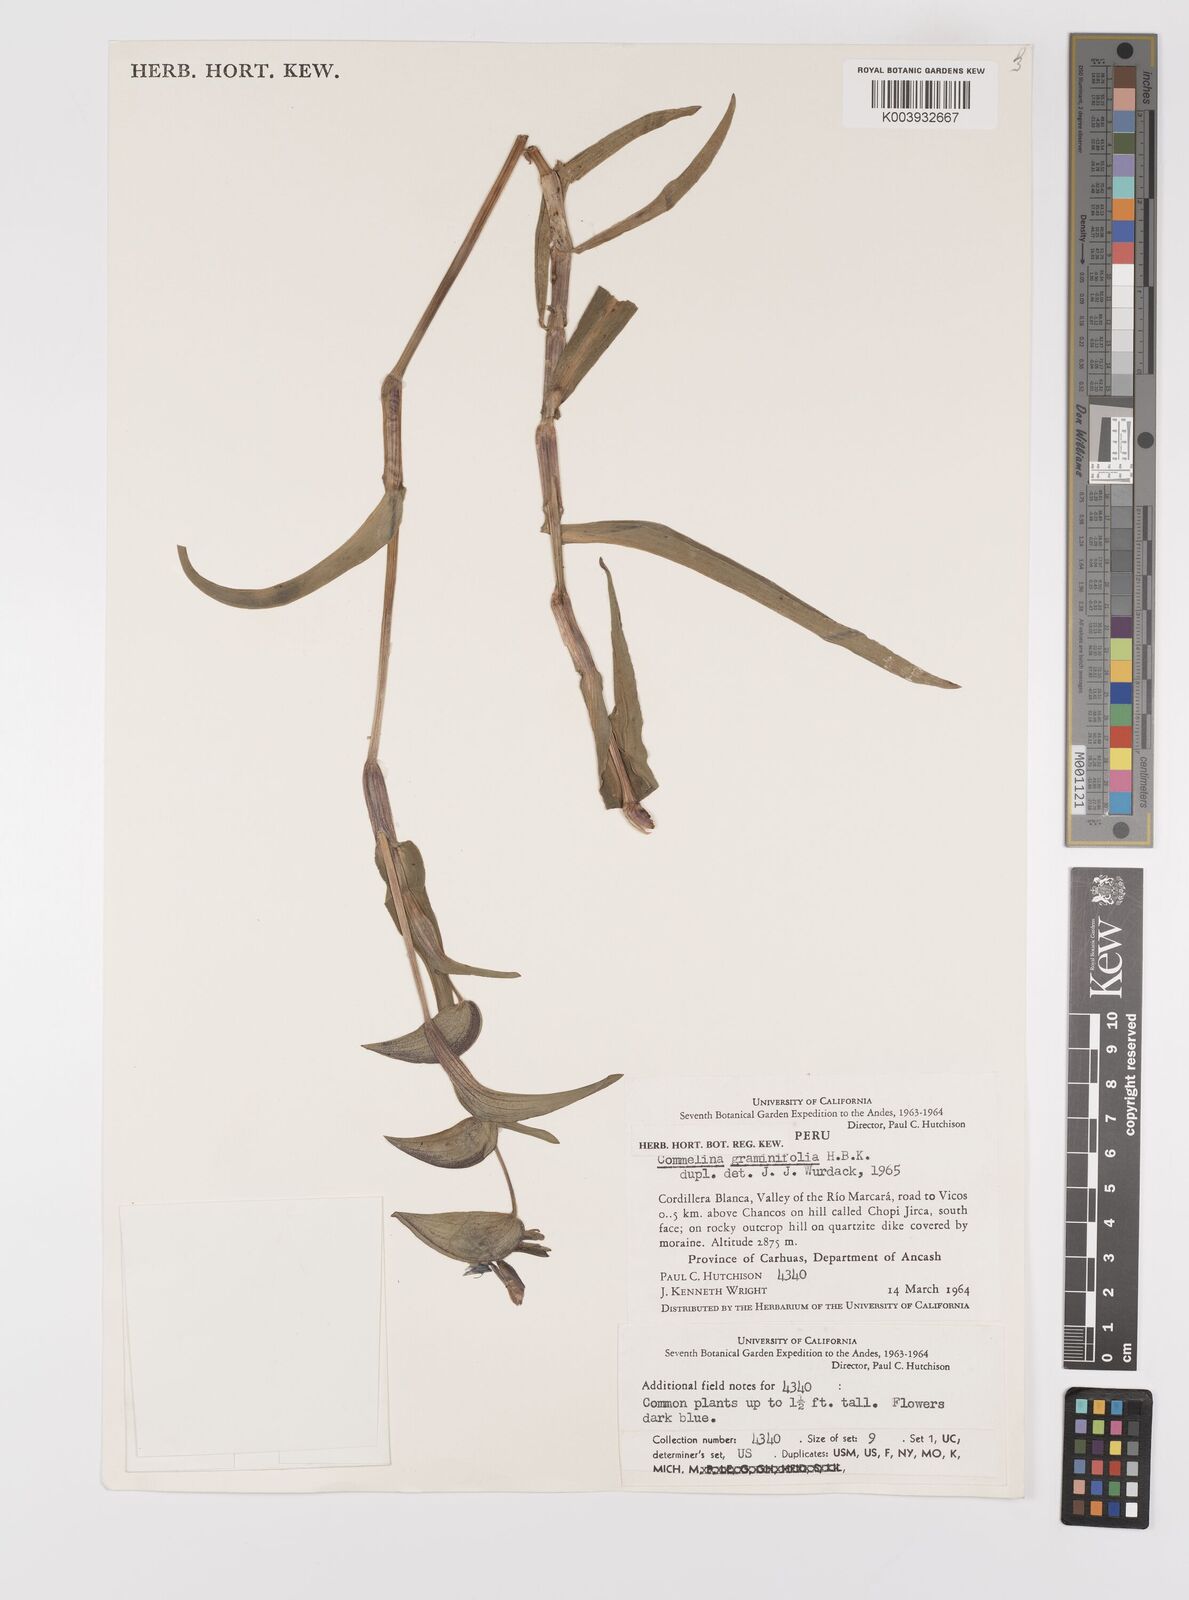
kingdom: Plantae
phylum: Tracheophyta
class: Liliopsida
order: Commelinales
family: Commelinaceae
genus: Commelina
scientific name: Commelina
